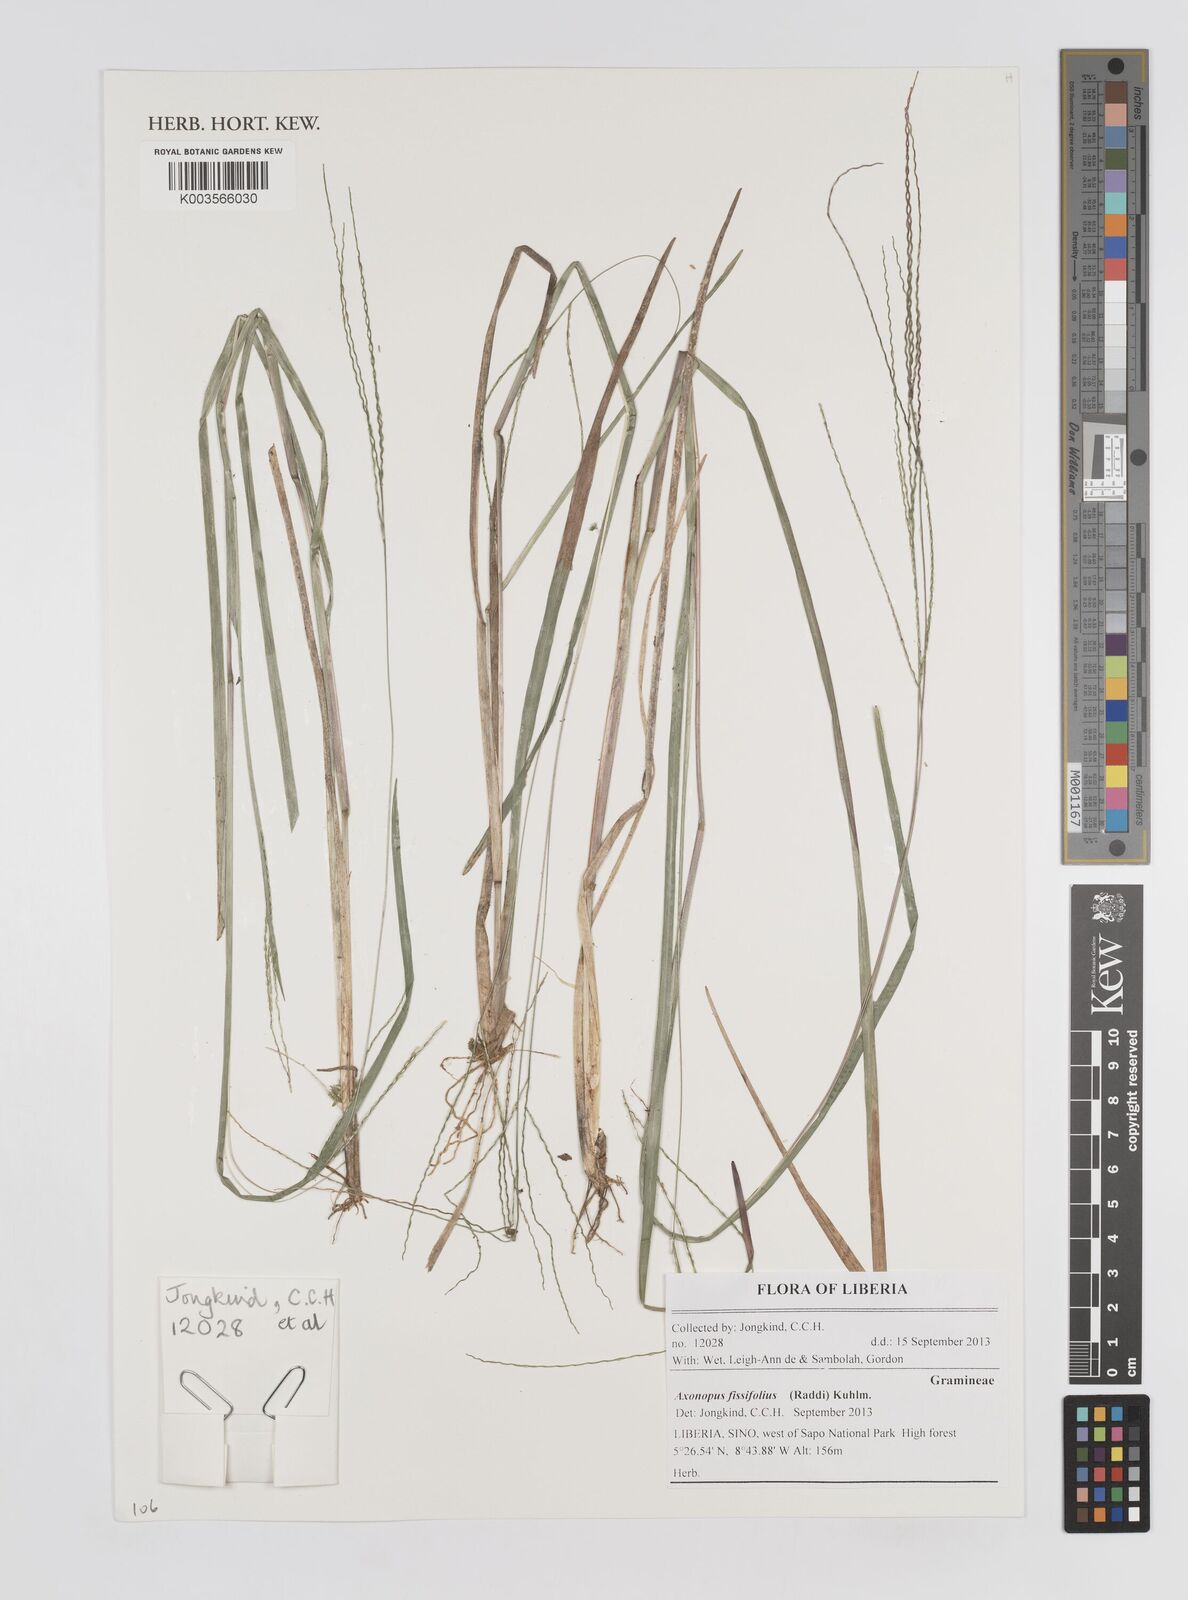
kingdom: Plantae
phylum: Tracheophyta
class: Liliopsida
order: Poales
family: Poaceae
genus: Axonopus
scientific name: Axonopus fissifolius
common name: Common carpetgrass
